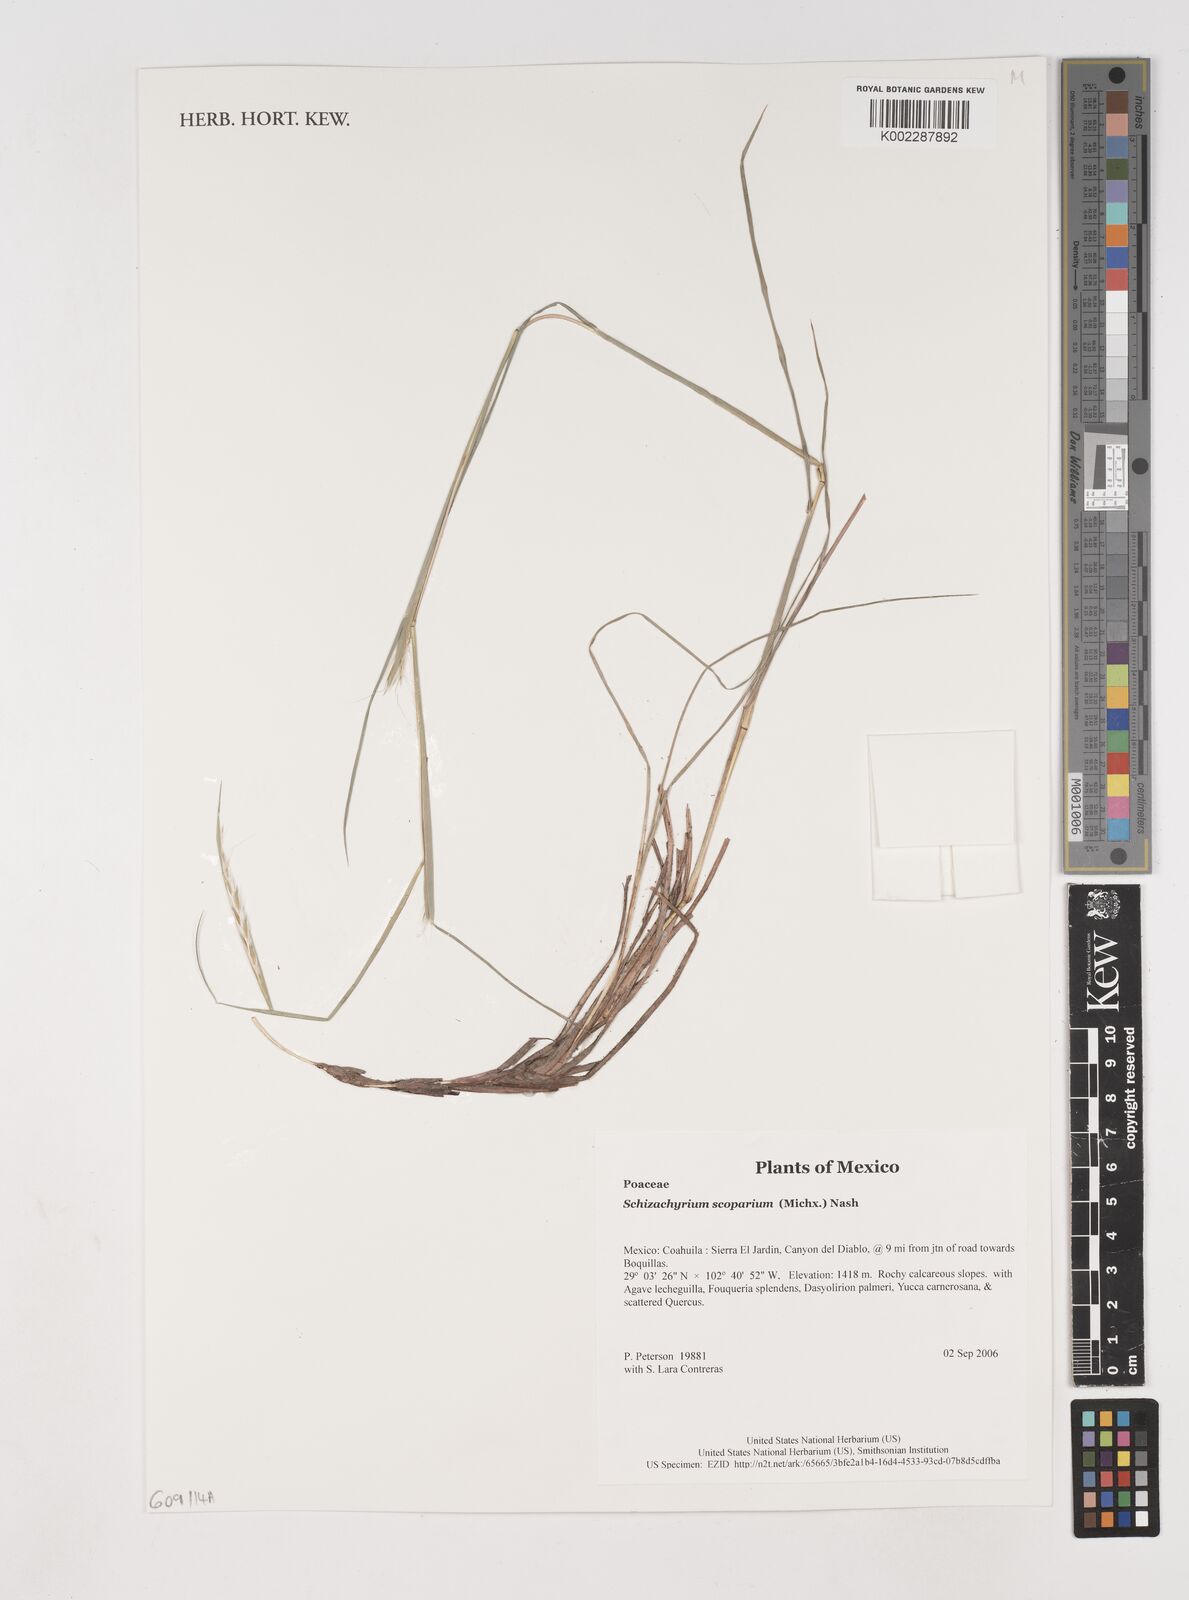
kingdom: Plantae
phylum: Tracheophyta
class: Liliopsida
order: Poales
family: Poaceae
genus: Schizachyrium
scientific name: Schizachyrium scoparium
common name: Little bluestem
